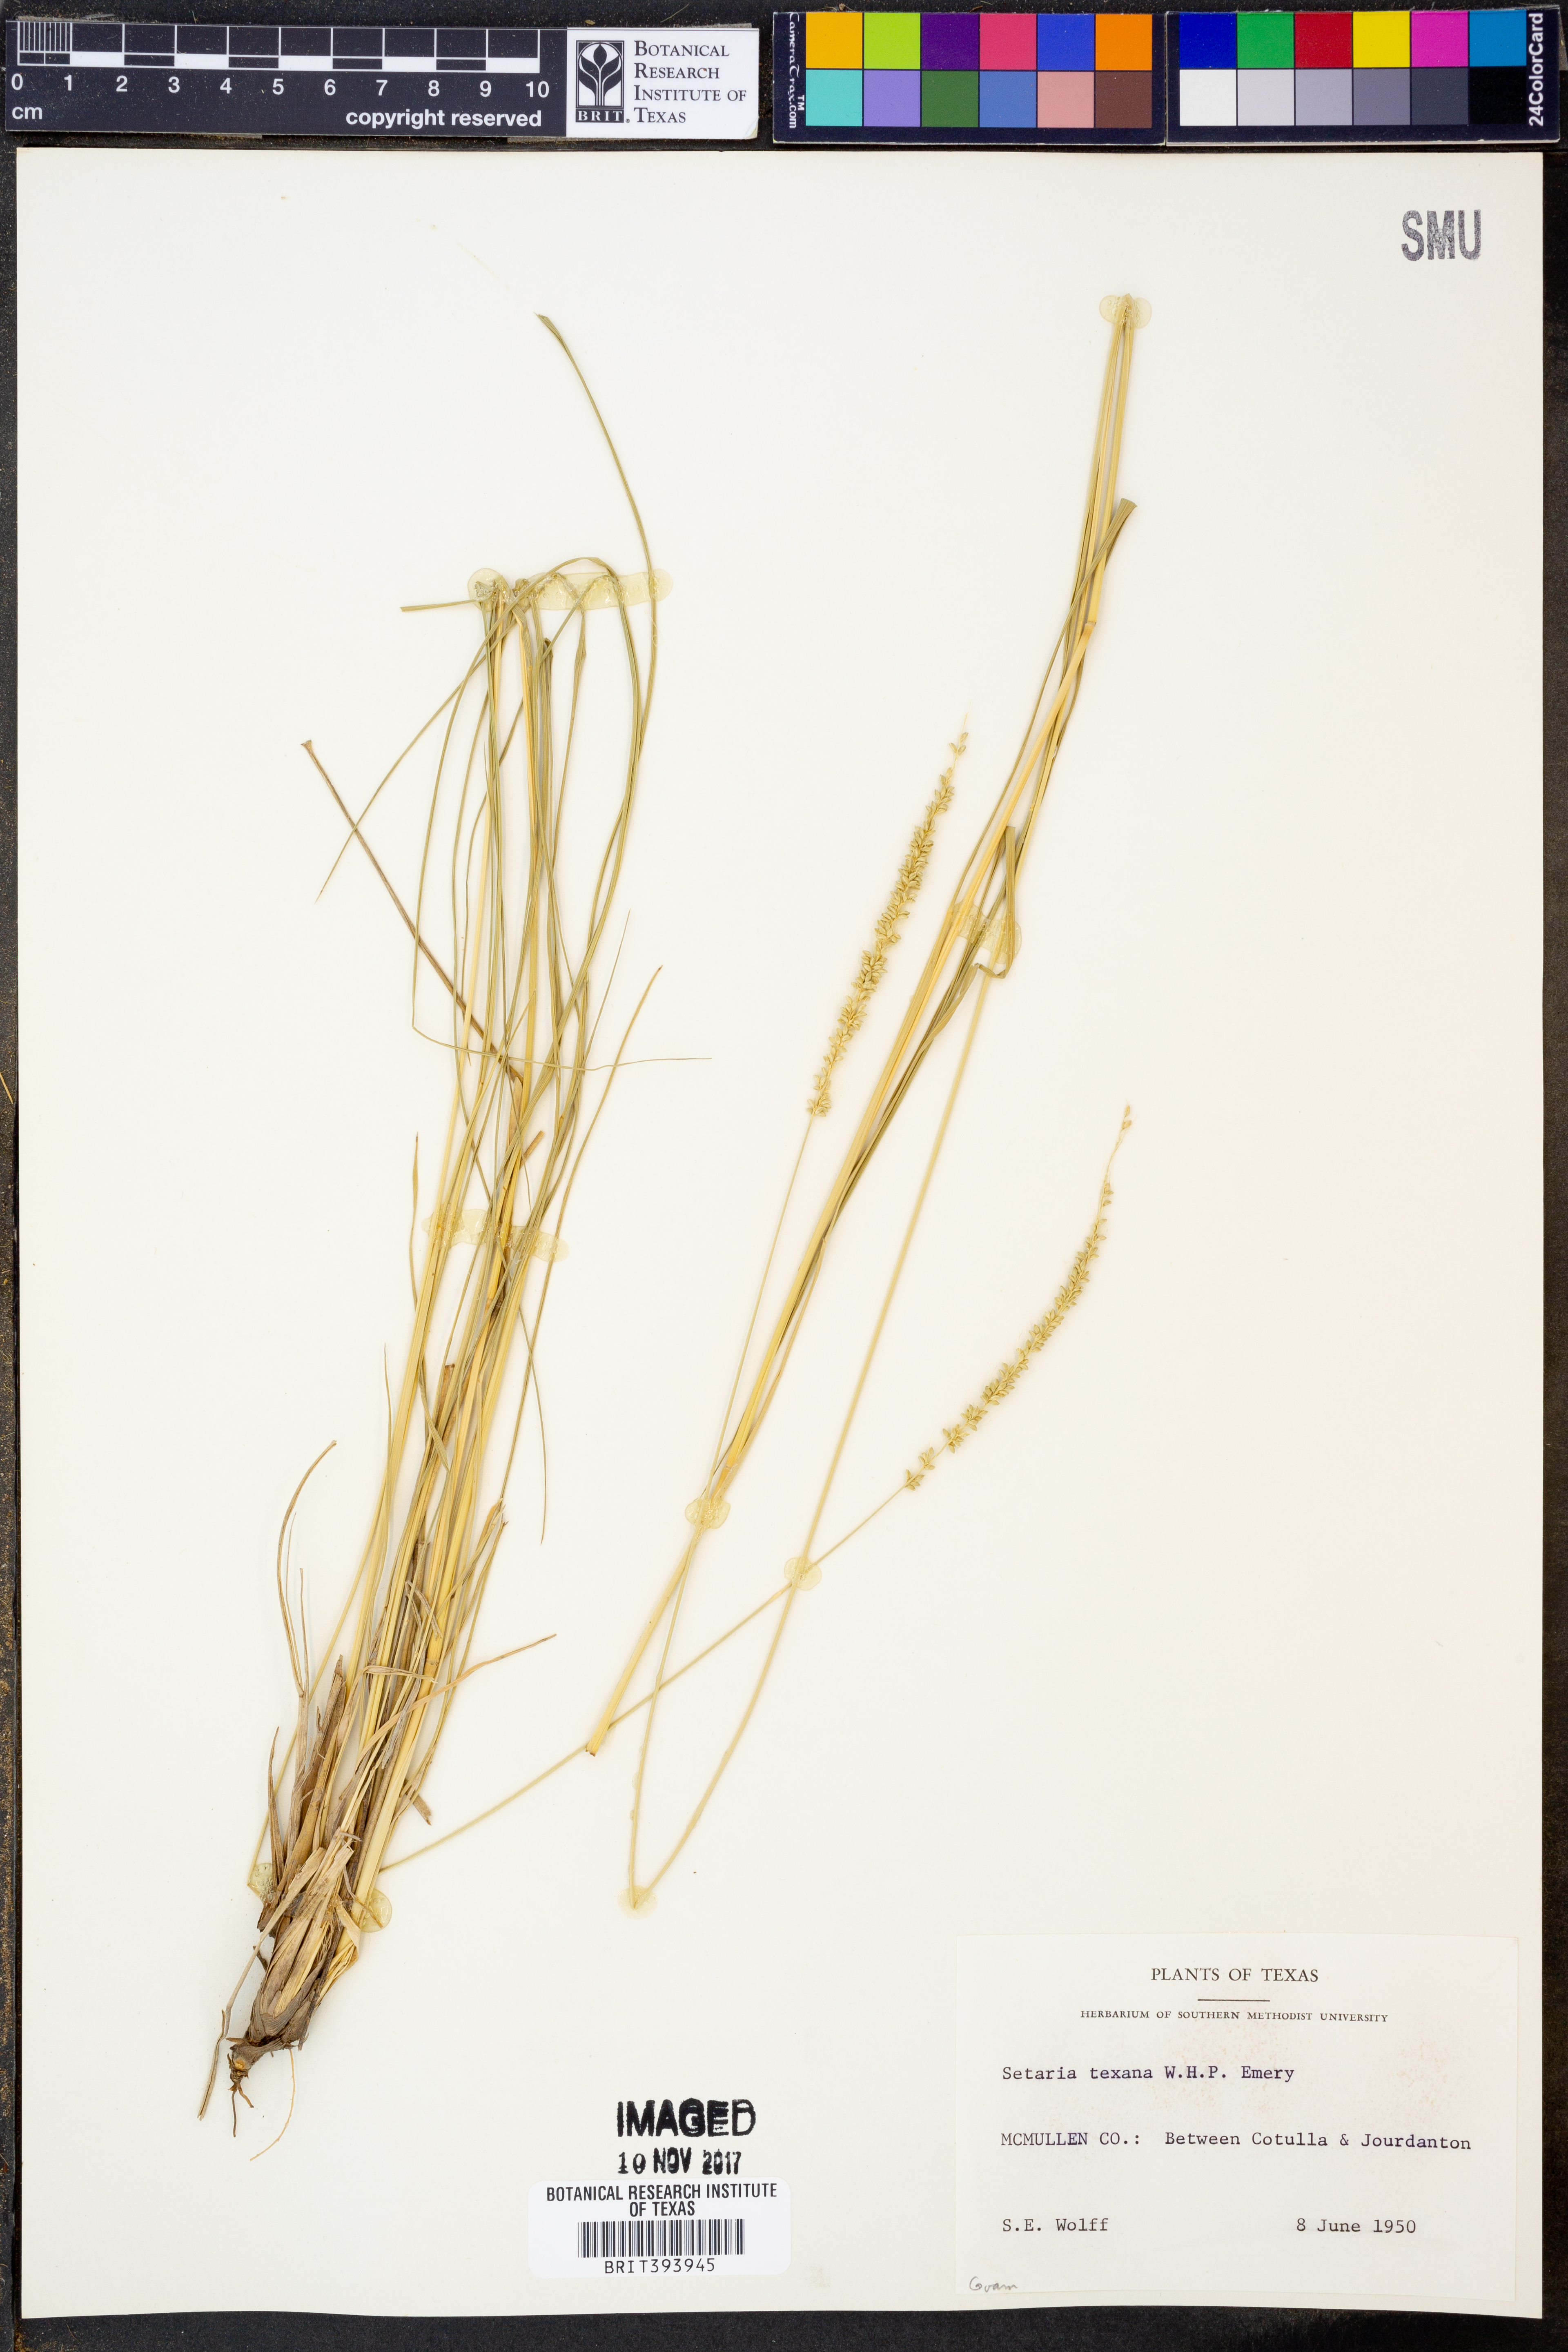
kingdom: Plantae
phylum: Tracheophyta
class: Liliopsida
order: Poales
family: Poaceae
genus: Setaria
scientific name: Setaria texana
